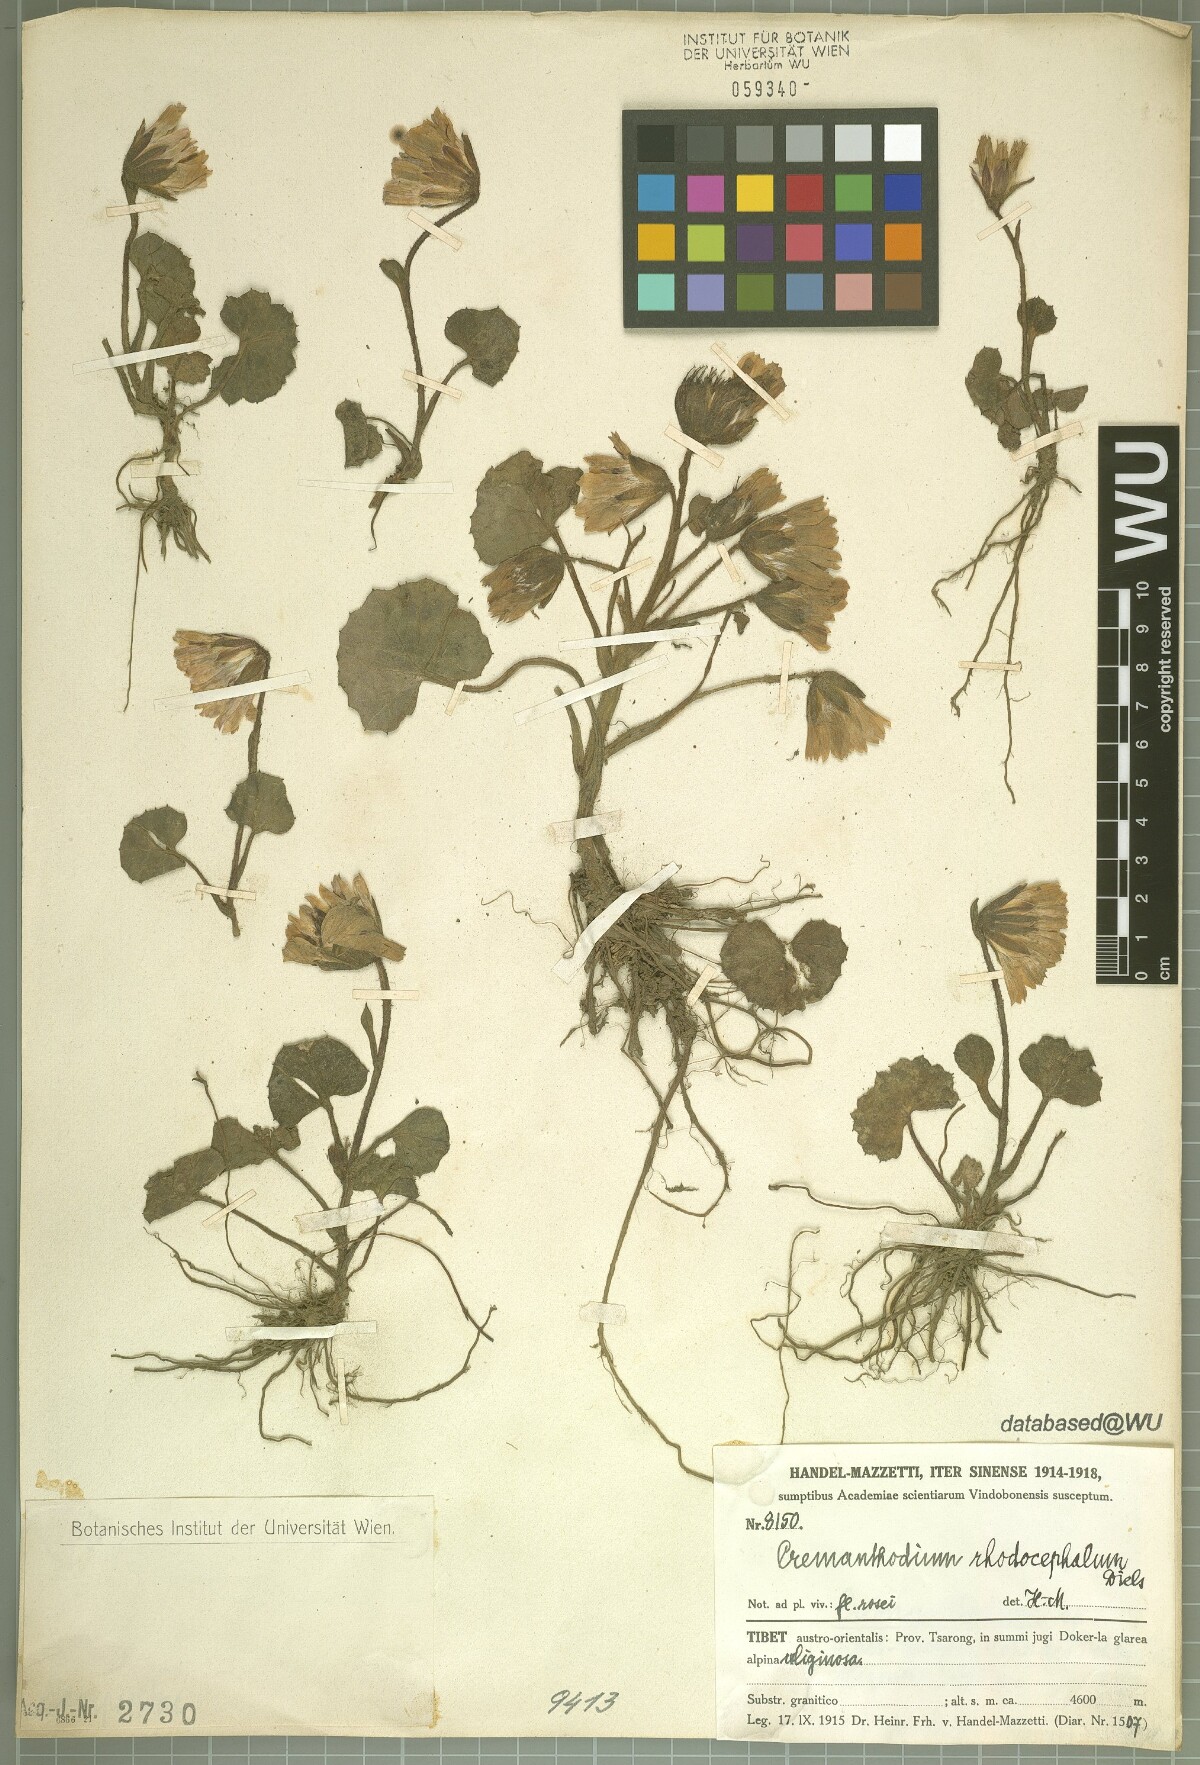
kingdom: Plantae
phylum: Tracheophyta
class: Magnoliopsida
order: Asterales
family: Asteraceae
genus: Cremanthodium
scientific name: Cremanthodium palmatum
